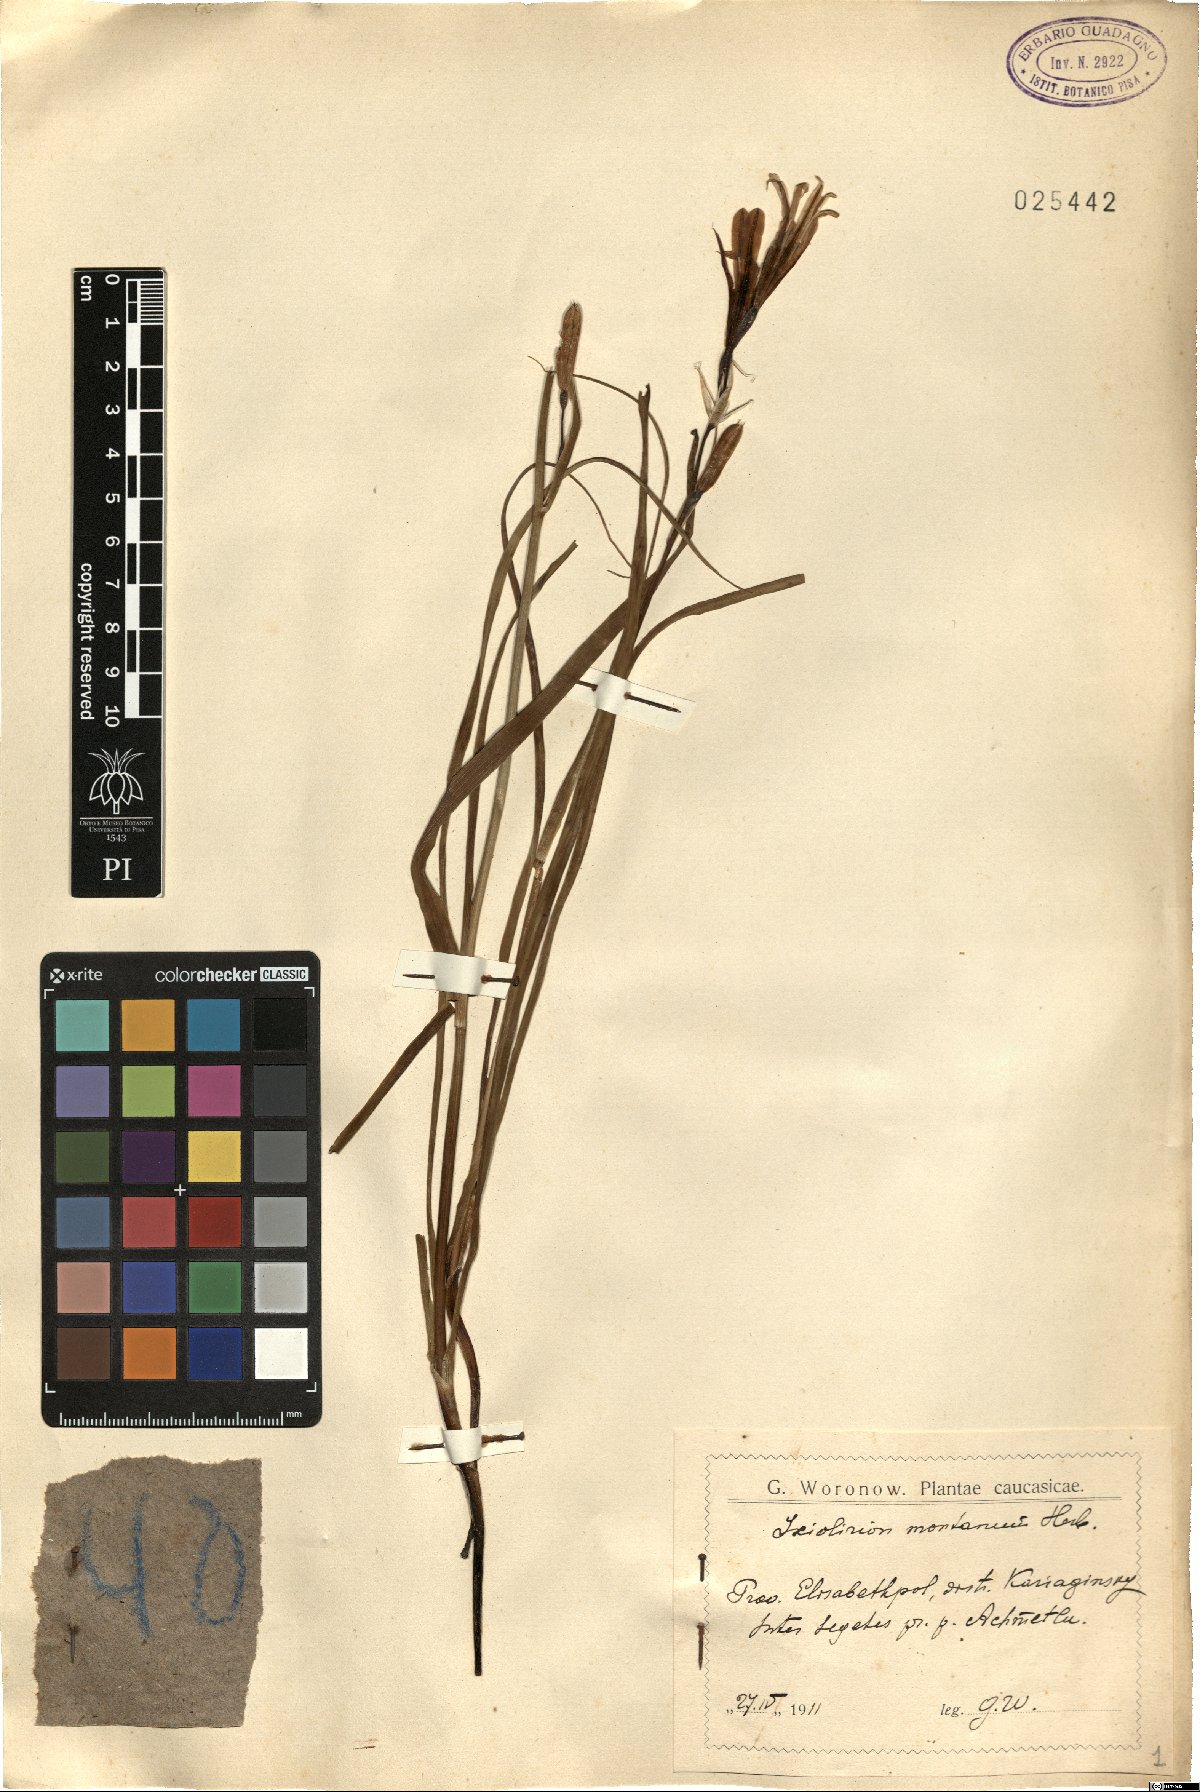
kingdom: Plantae
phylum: Tracheophyta
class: Liliopsida
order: Asparagales
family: Ixioliriaceae
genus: Ixiolirion
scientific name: Ixiolirion tataricum
